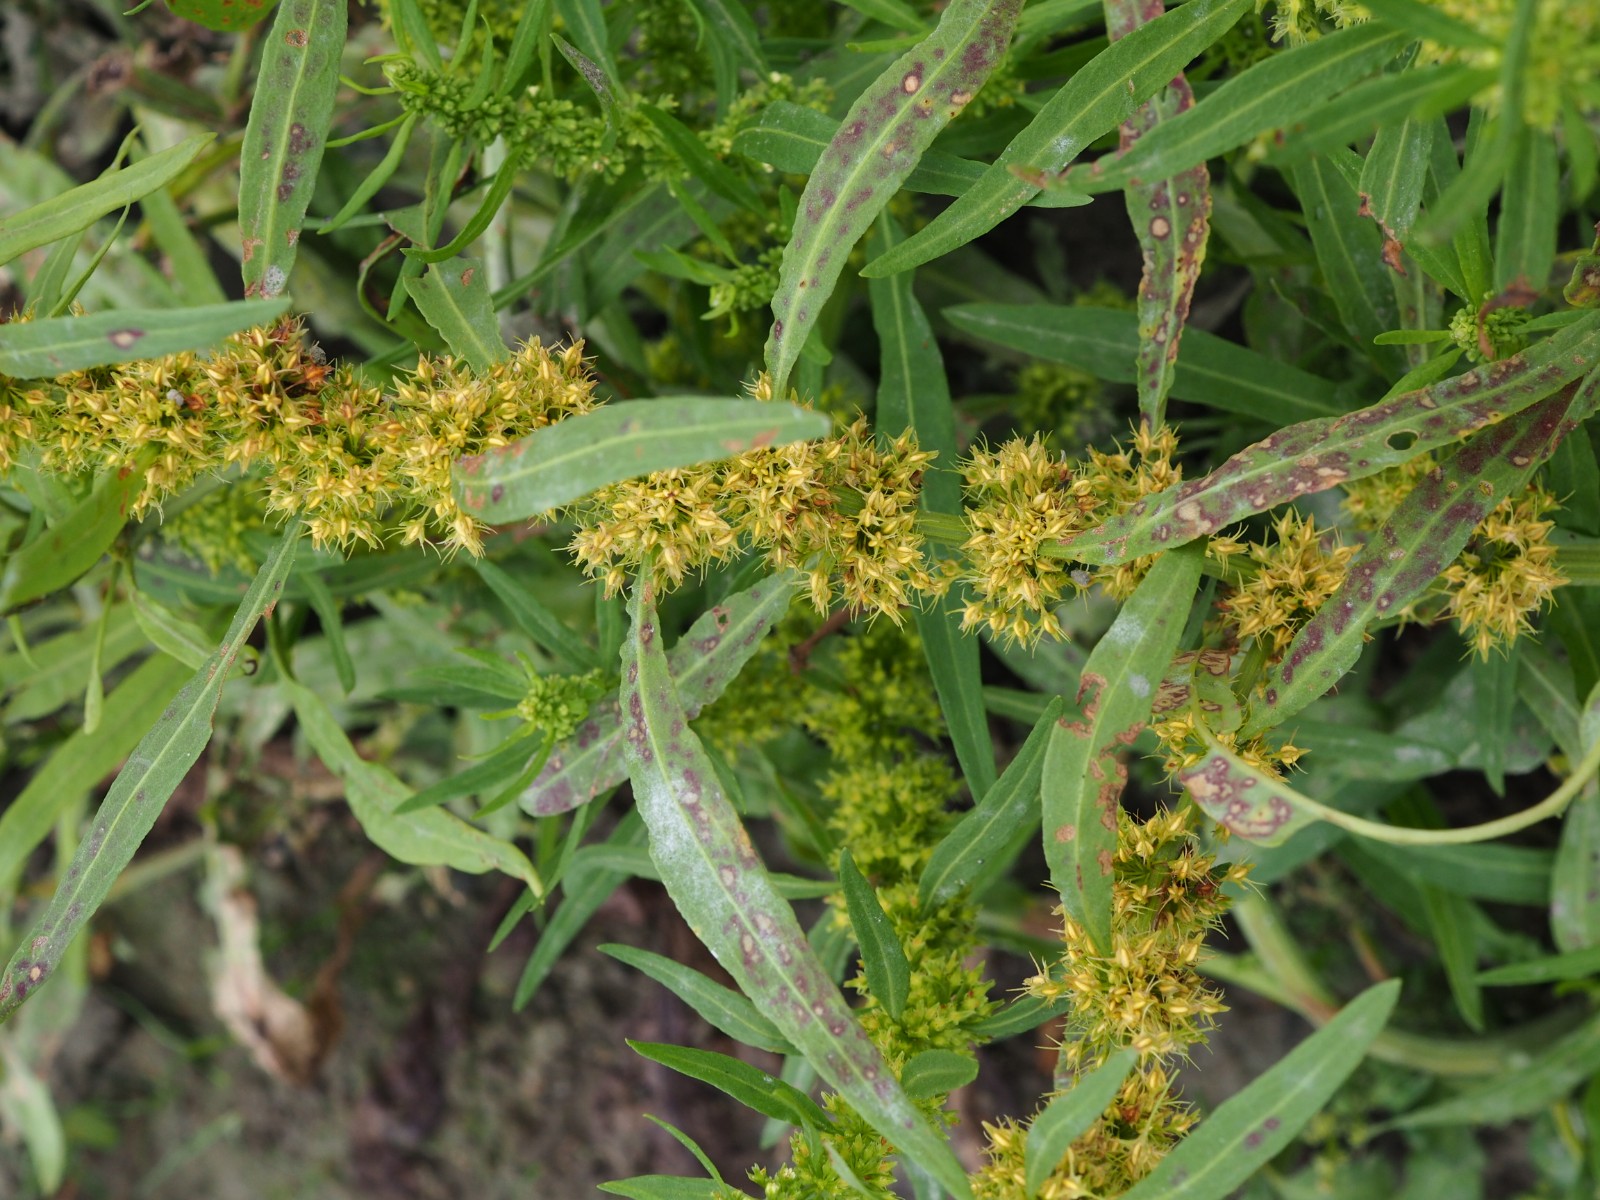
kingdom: Fungi
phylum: Basidiomycota
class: Pucciniomycetes
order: Pucciniales
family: Pucciniaceae
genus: Uromyces
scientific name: Uromyces rumicis
